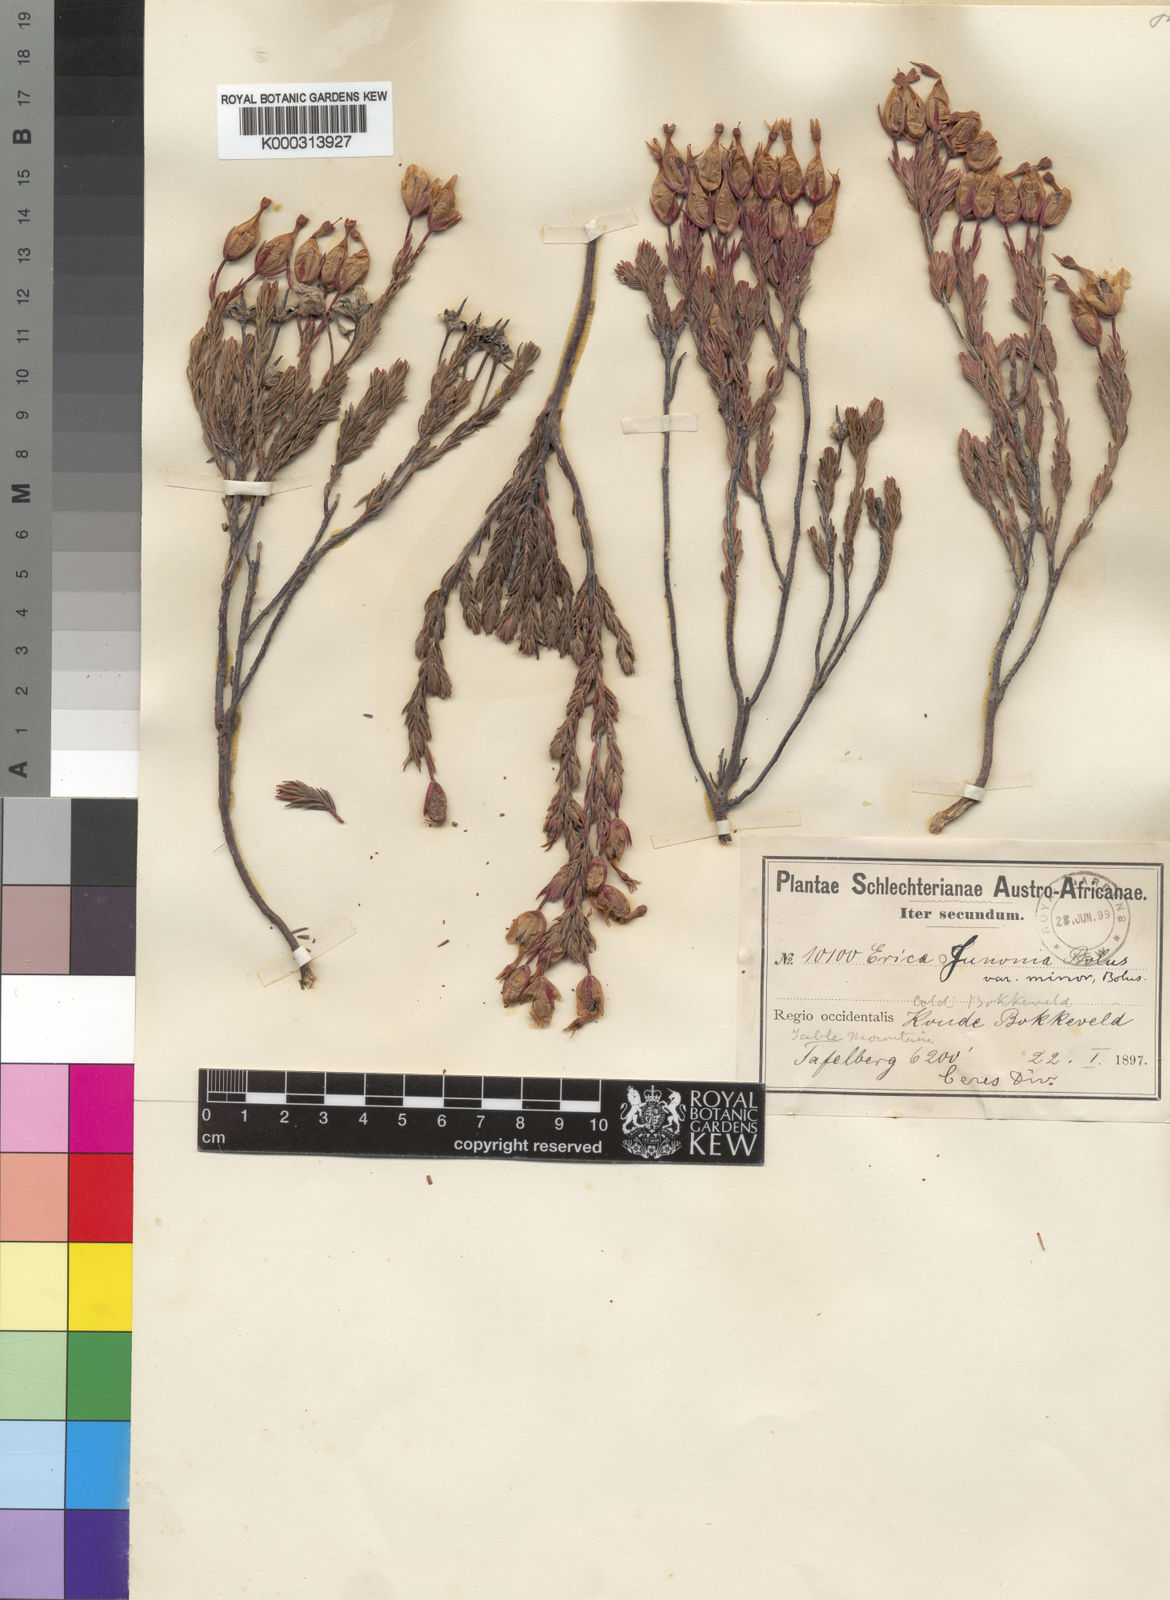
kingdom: Plantae
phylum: Tracheophyta
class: Magnoliopsida
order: Ericales
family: Ericaceae
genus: Erica
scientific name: Erica junonia
